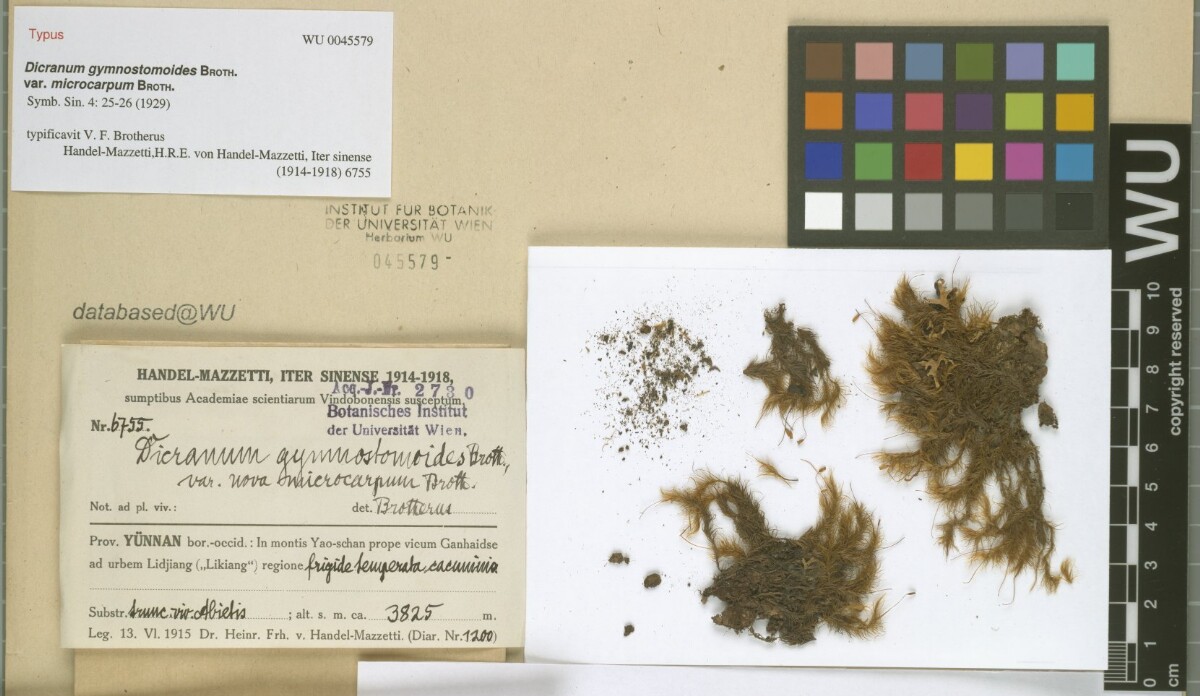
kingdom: Plantae
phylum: Bryophyta
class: Bryopsida
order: Dicranales
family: Dicranaceae
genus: Pseudochorisodontium
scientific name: Pseudochorisodontium gymnostomum
